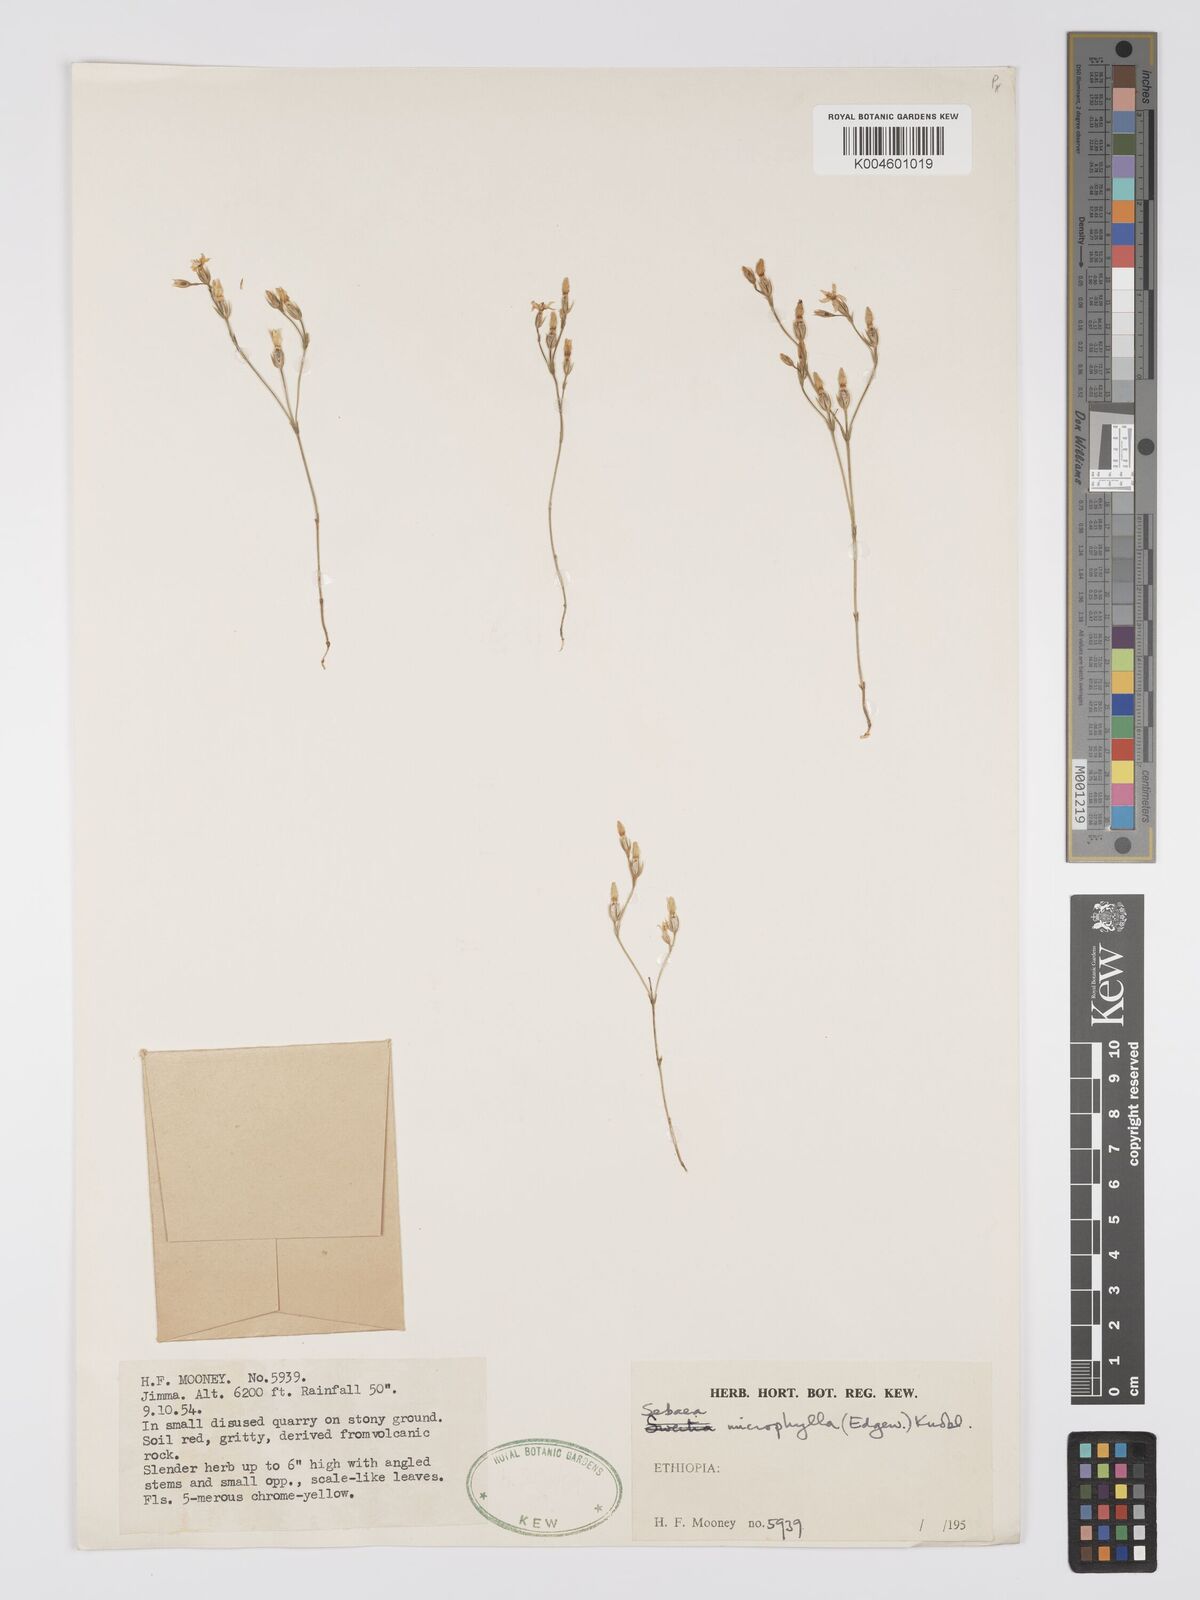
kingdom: Plantae
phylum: Tracheophyta
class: Magnoliopsida
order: Gentianales
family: Gentianaceae
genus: Sebaea
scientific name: Sebaea microphylla
